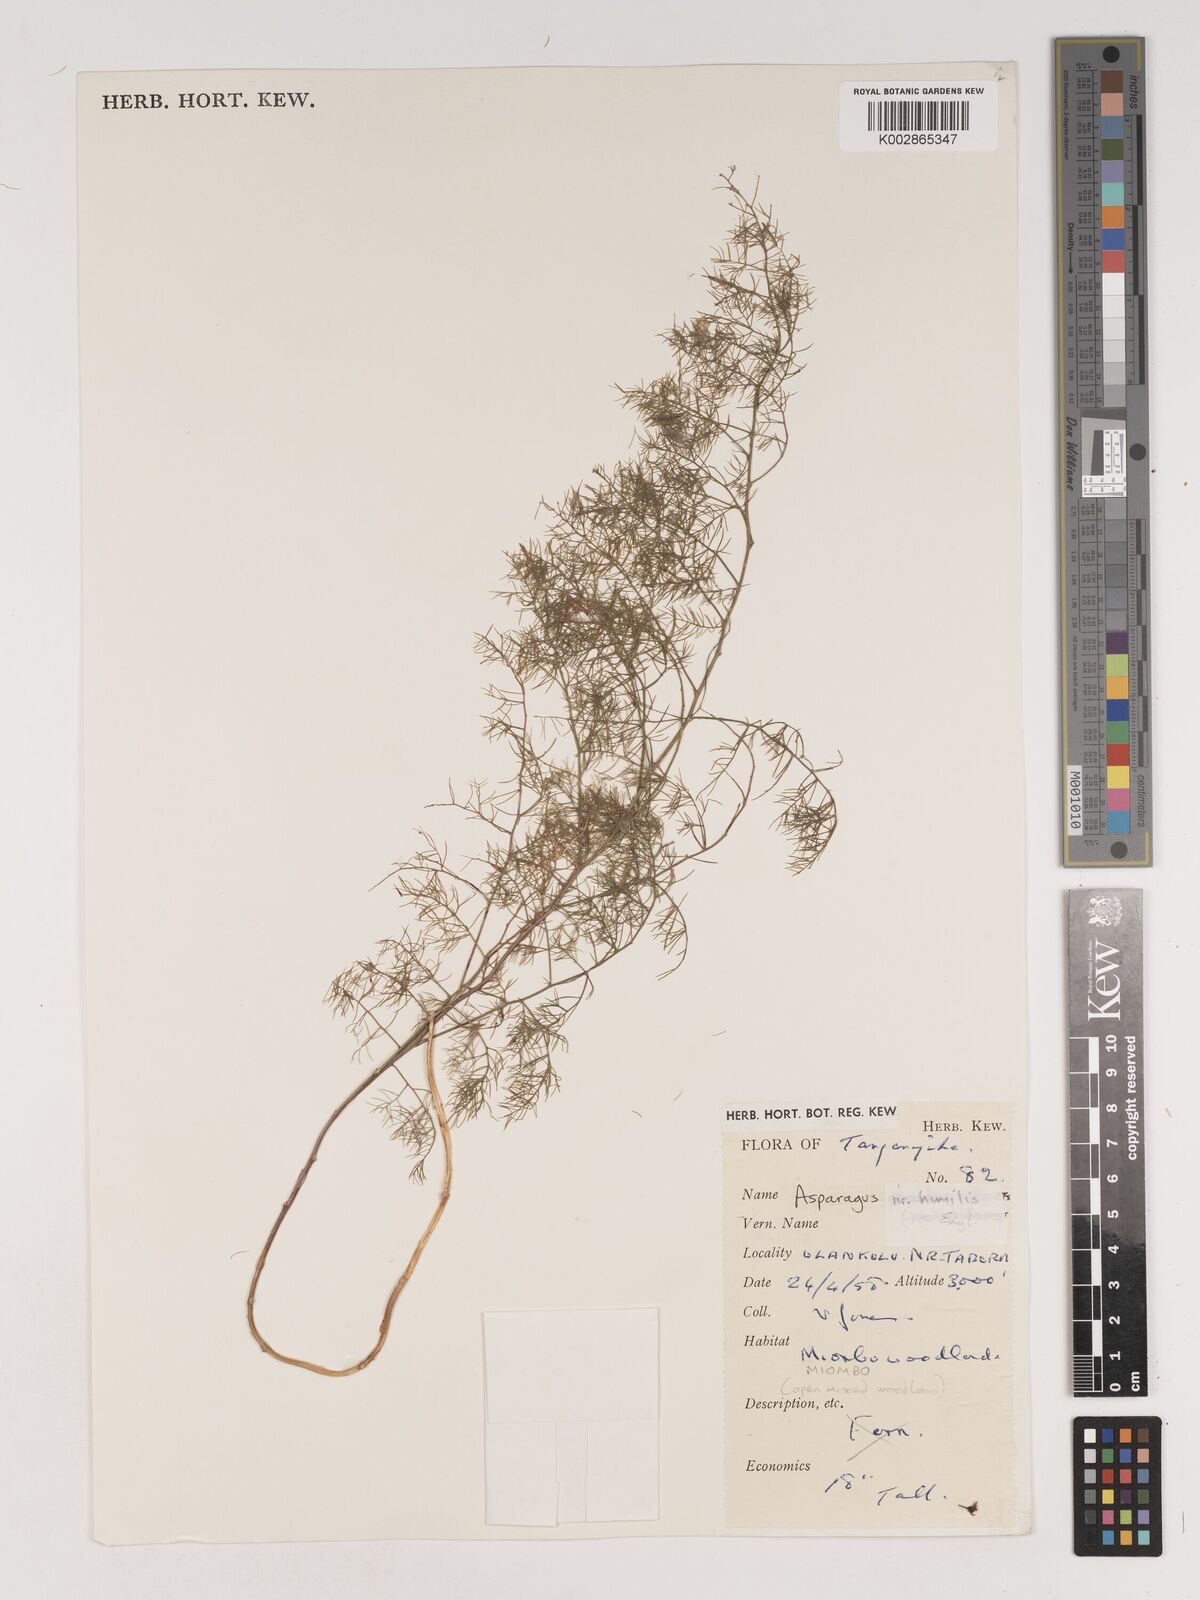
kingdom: Plantae
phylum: Tracheophyta
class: Liliopsida
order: Asparagales
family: Asparagaceae
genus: Asparagus
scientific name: Asparagus
